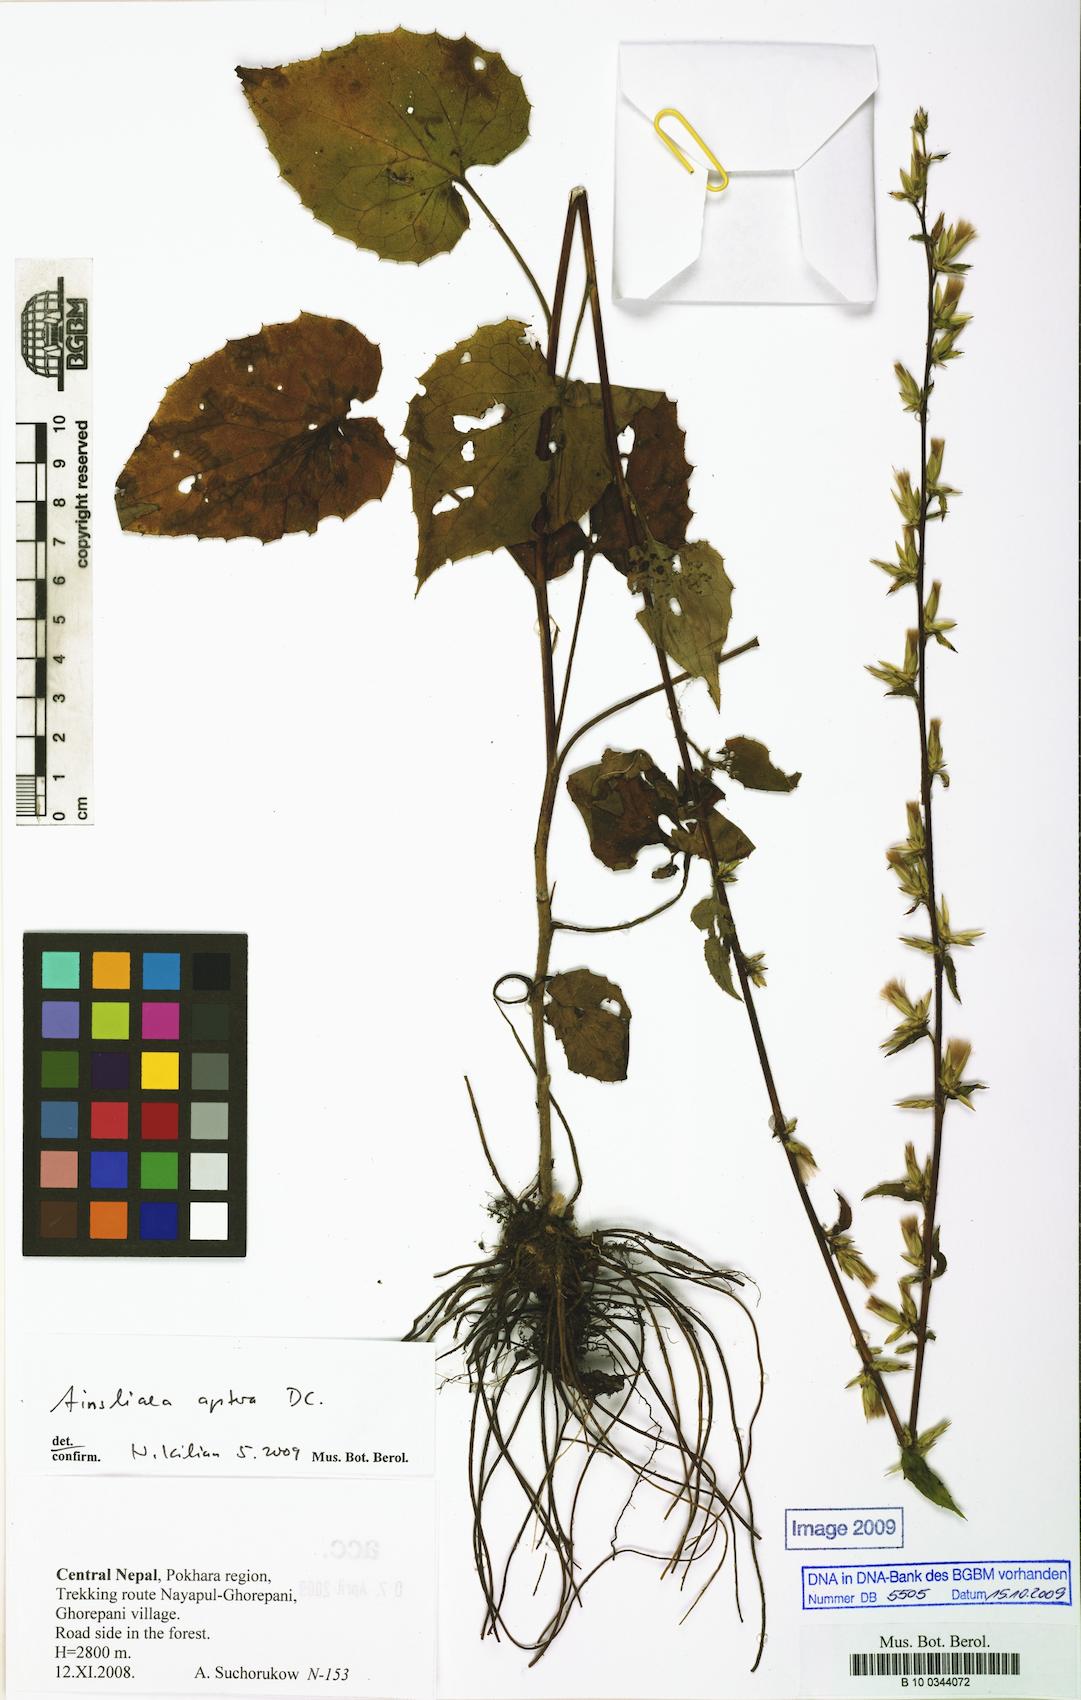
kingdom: Plantae
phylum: Tracheophyta
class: Magnoliopsida
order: Asterales
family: Asteraceae
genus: Ainsliaea
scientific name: Ainsliaea aptera
